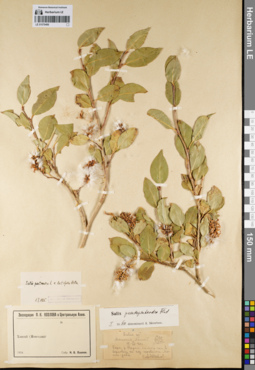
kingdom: Plantae
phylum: Tracheophyta
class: Magnoliopsida
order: Malpighiales
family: Salicaceae
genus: Salix
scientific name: Salix pseudopentandra
